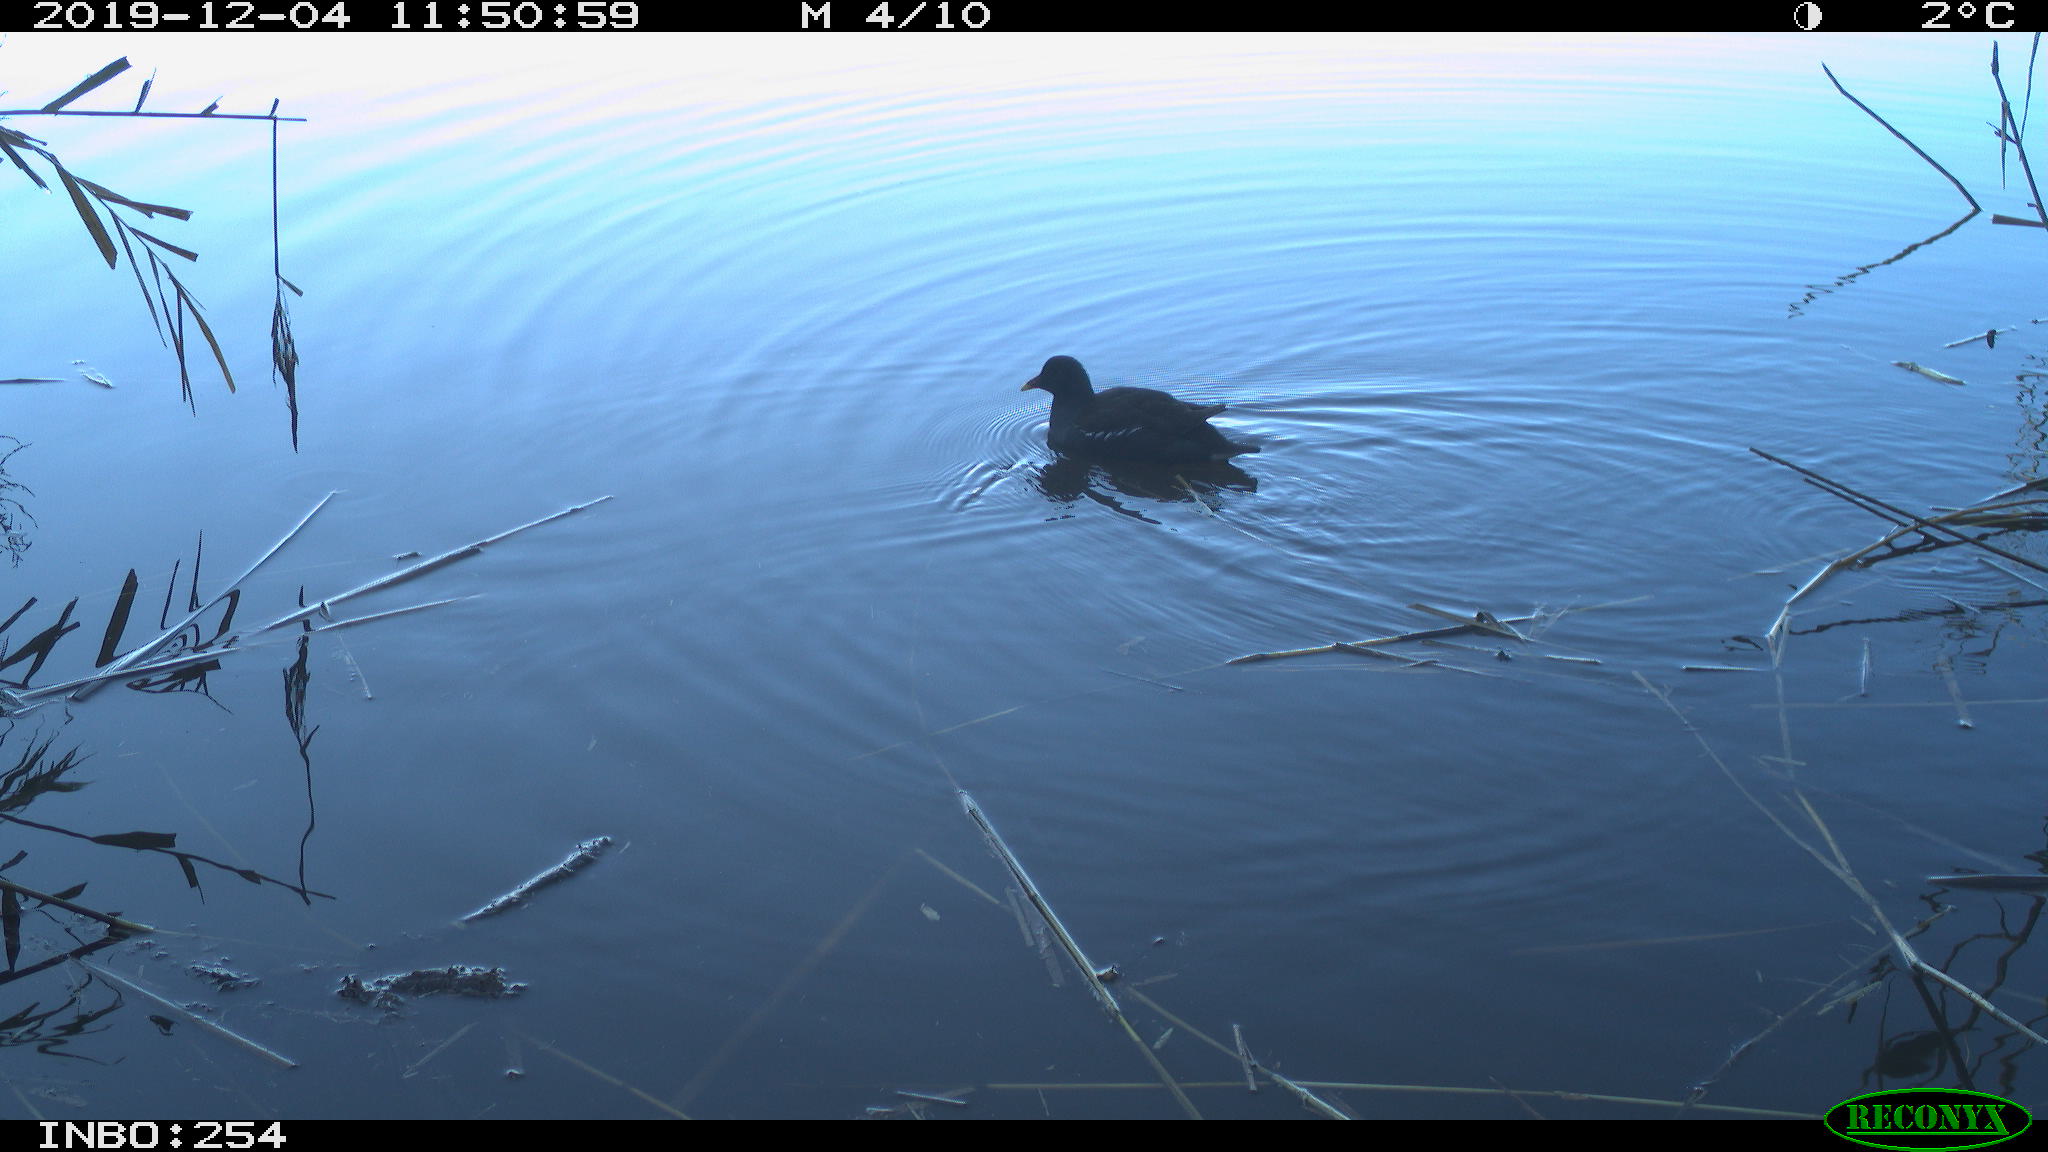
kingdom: Animalia
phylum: Chordata
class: Aves
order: Gruiformes
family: Rallidae
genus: Gallinula
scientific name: Gallinula chloropus
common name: Common moorhen
